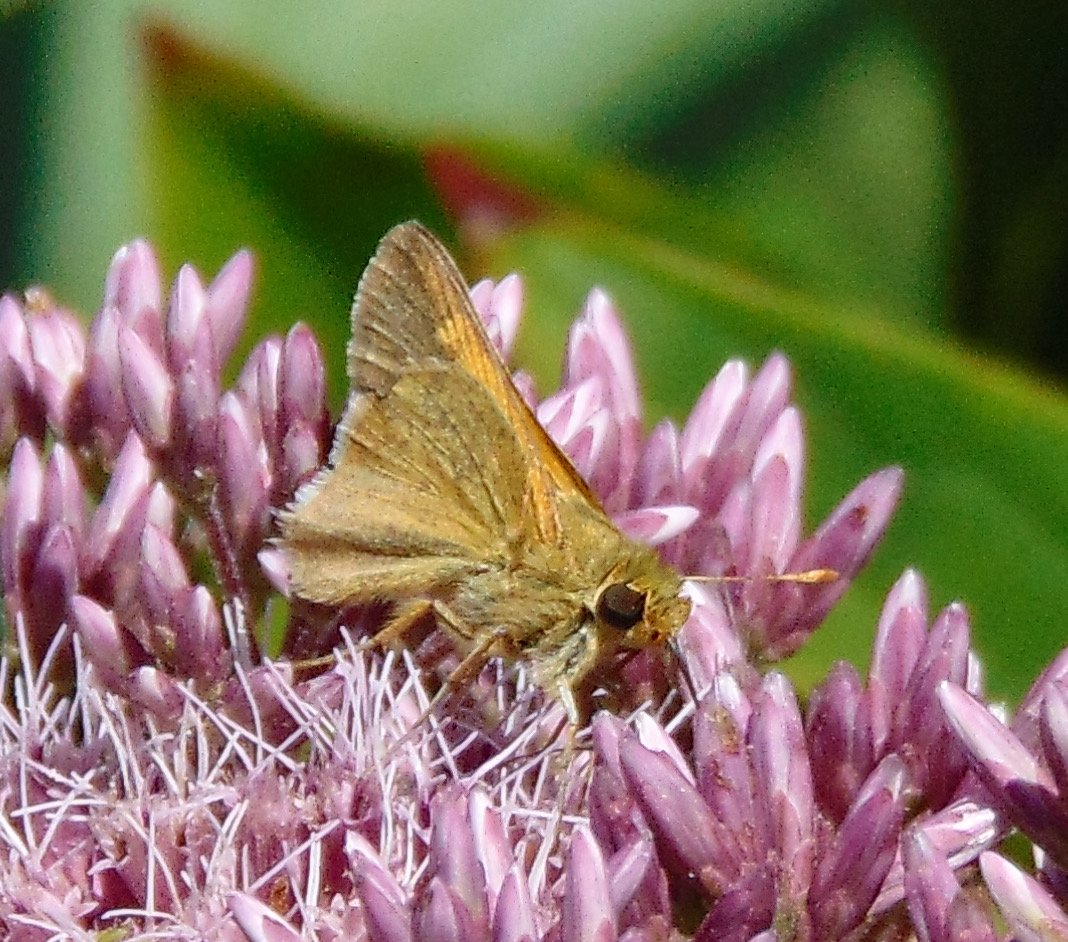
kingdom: Animalia
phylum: Arthropoda
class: Insecta
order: Lepidoptera
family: Hesperiidae
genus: Polites
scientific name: Polites themistocles
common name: Tawny-edged Skipper
